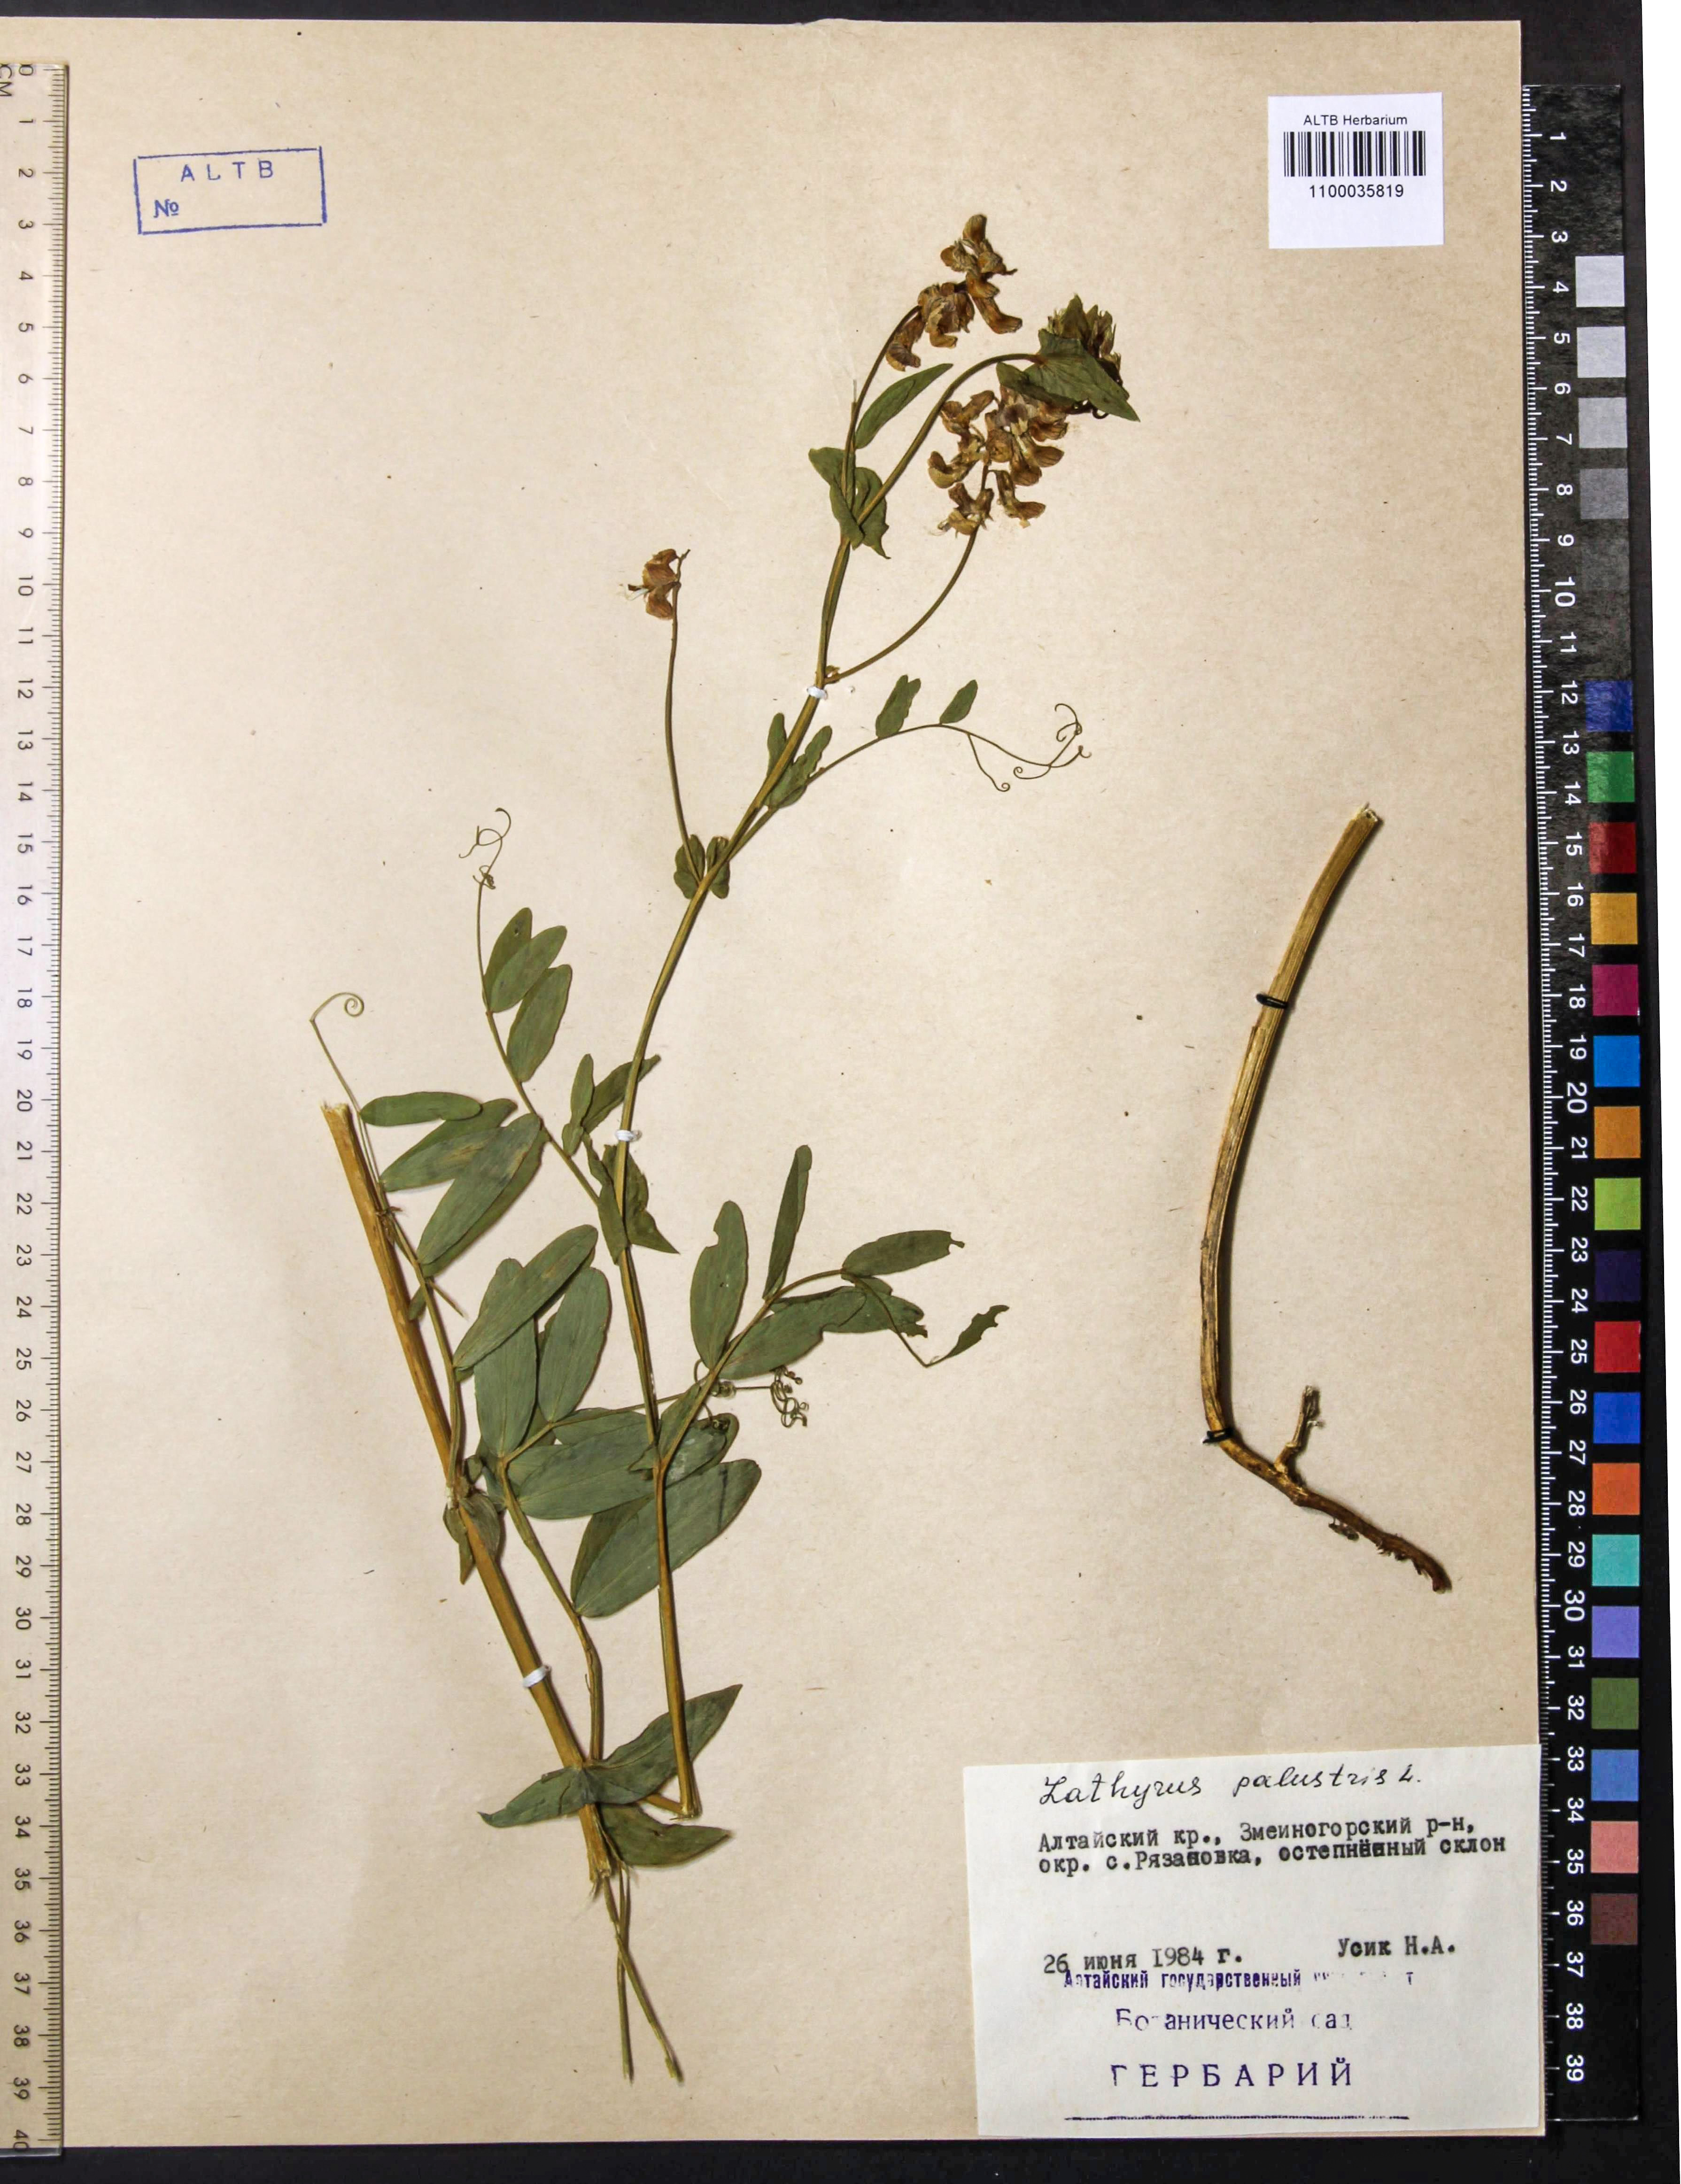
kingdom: Plantae
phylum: Tracheophyta
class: Magnoliopsida
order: Fabales
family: Fabaceae
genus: Lathyrus
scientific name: Lathyrus pisiformis
